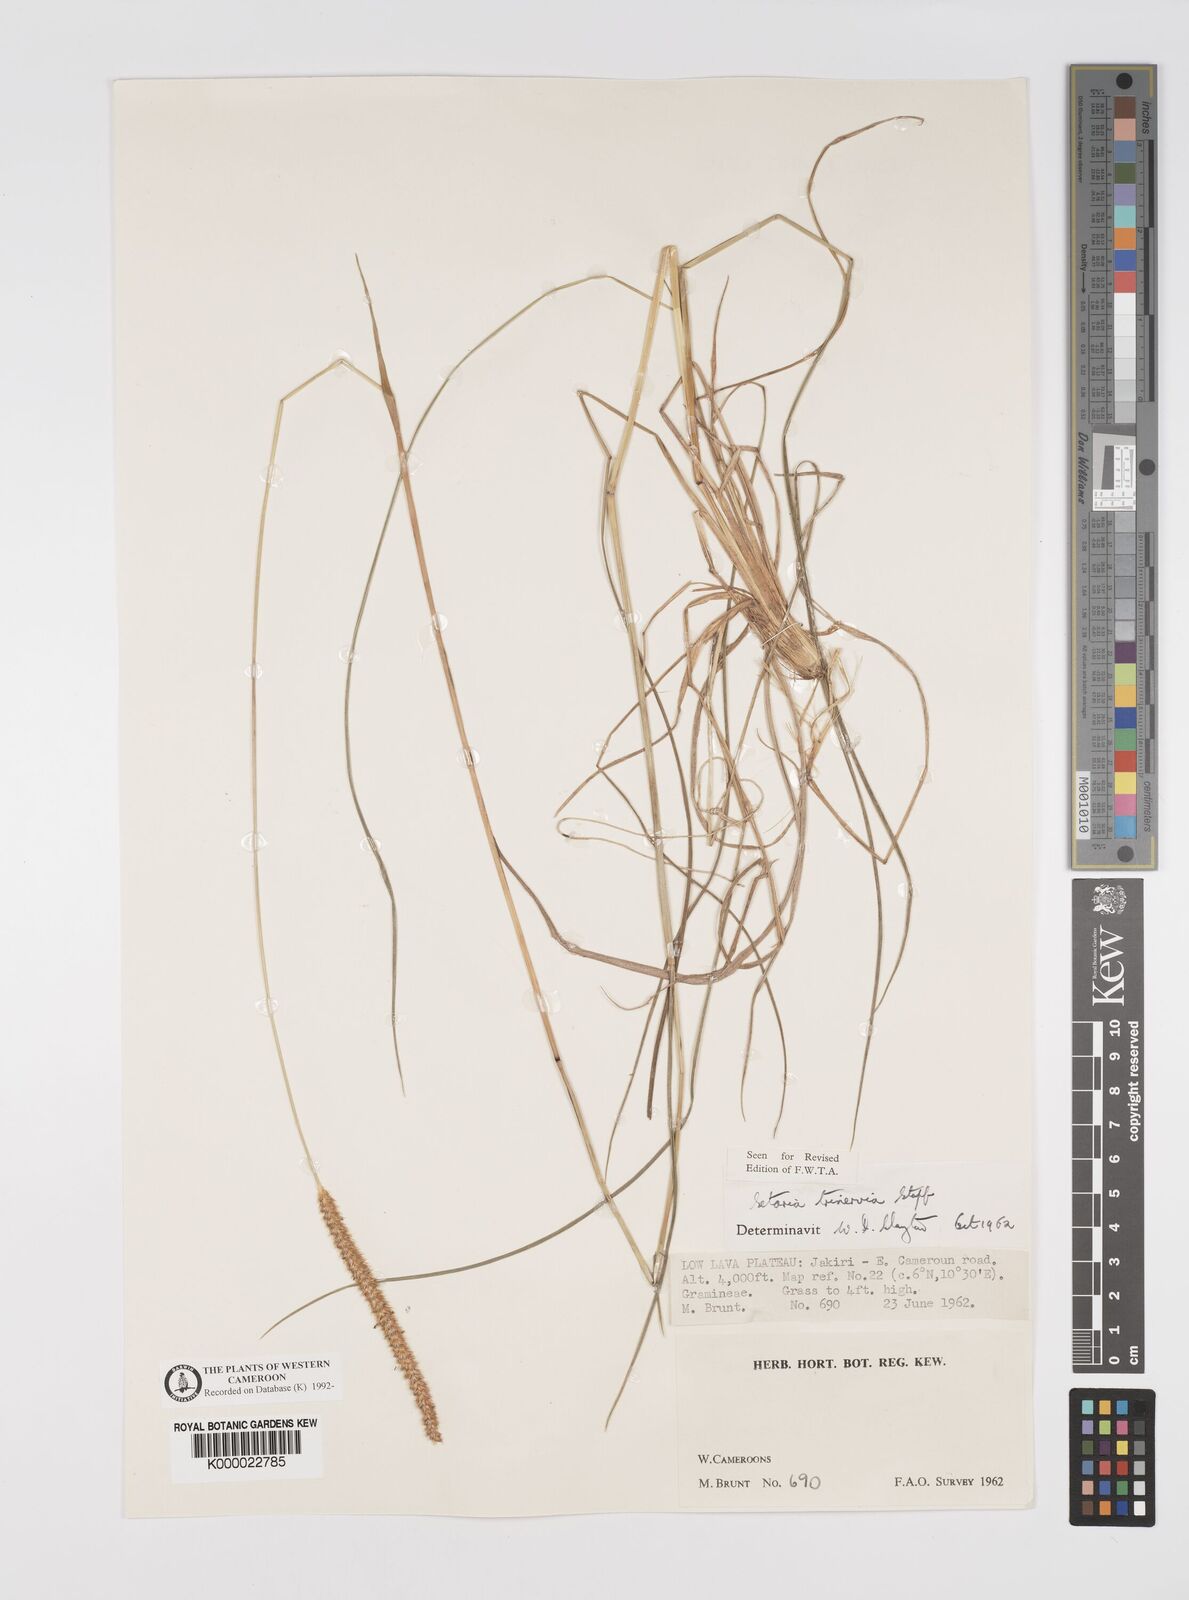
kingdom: Plantae
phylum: Tracheophyta
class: Liliopsida
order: Poales
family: Poaceae
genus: Setaria
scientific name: Setaria sphacelata
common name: African bristlegrass
